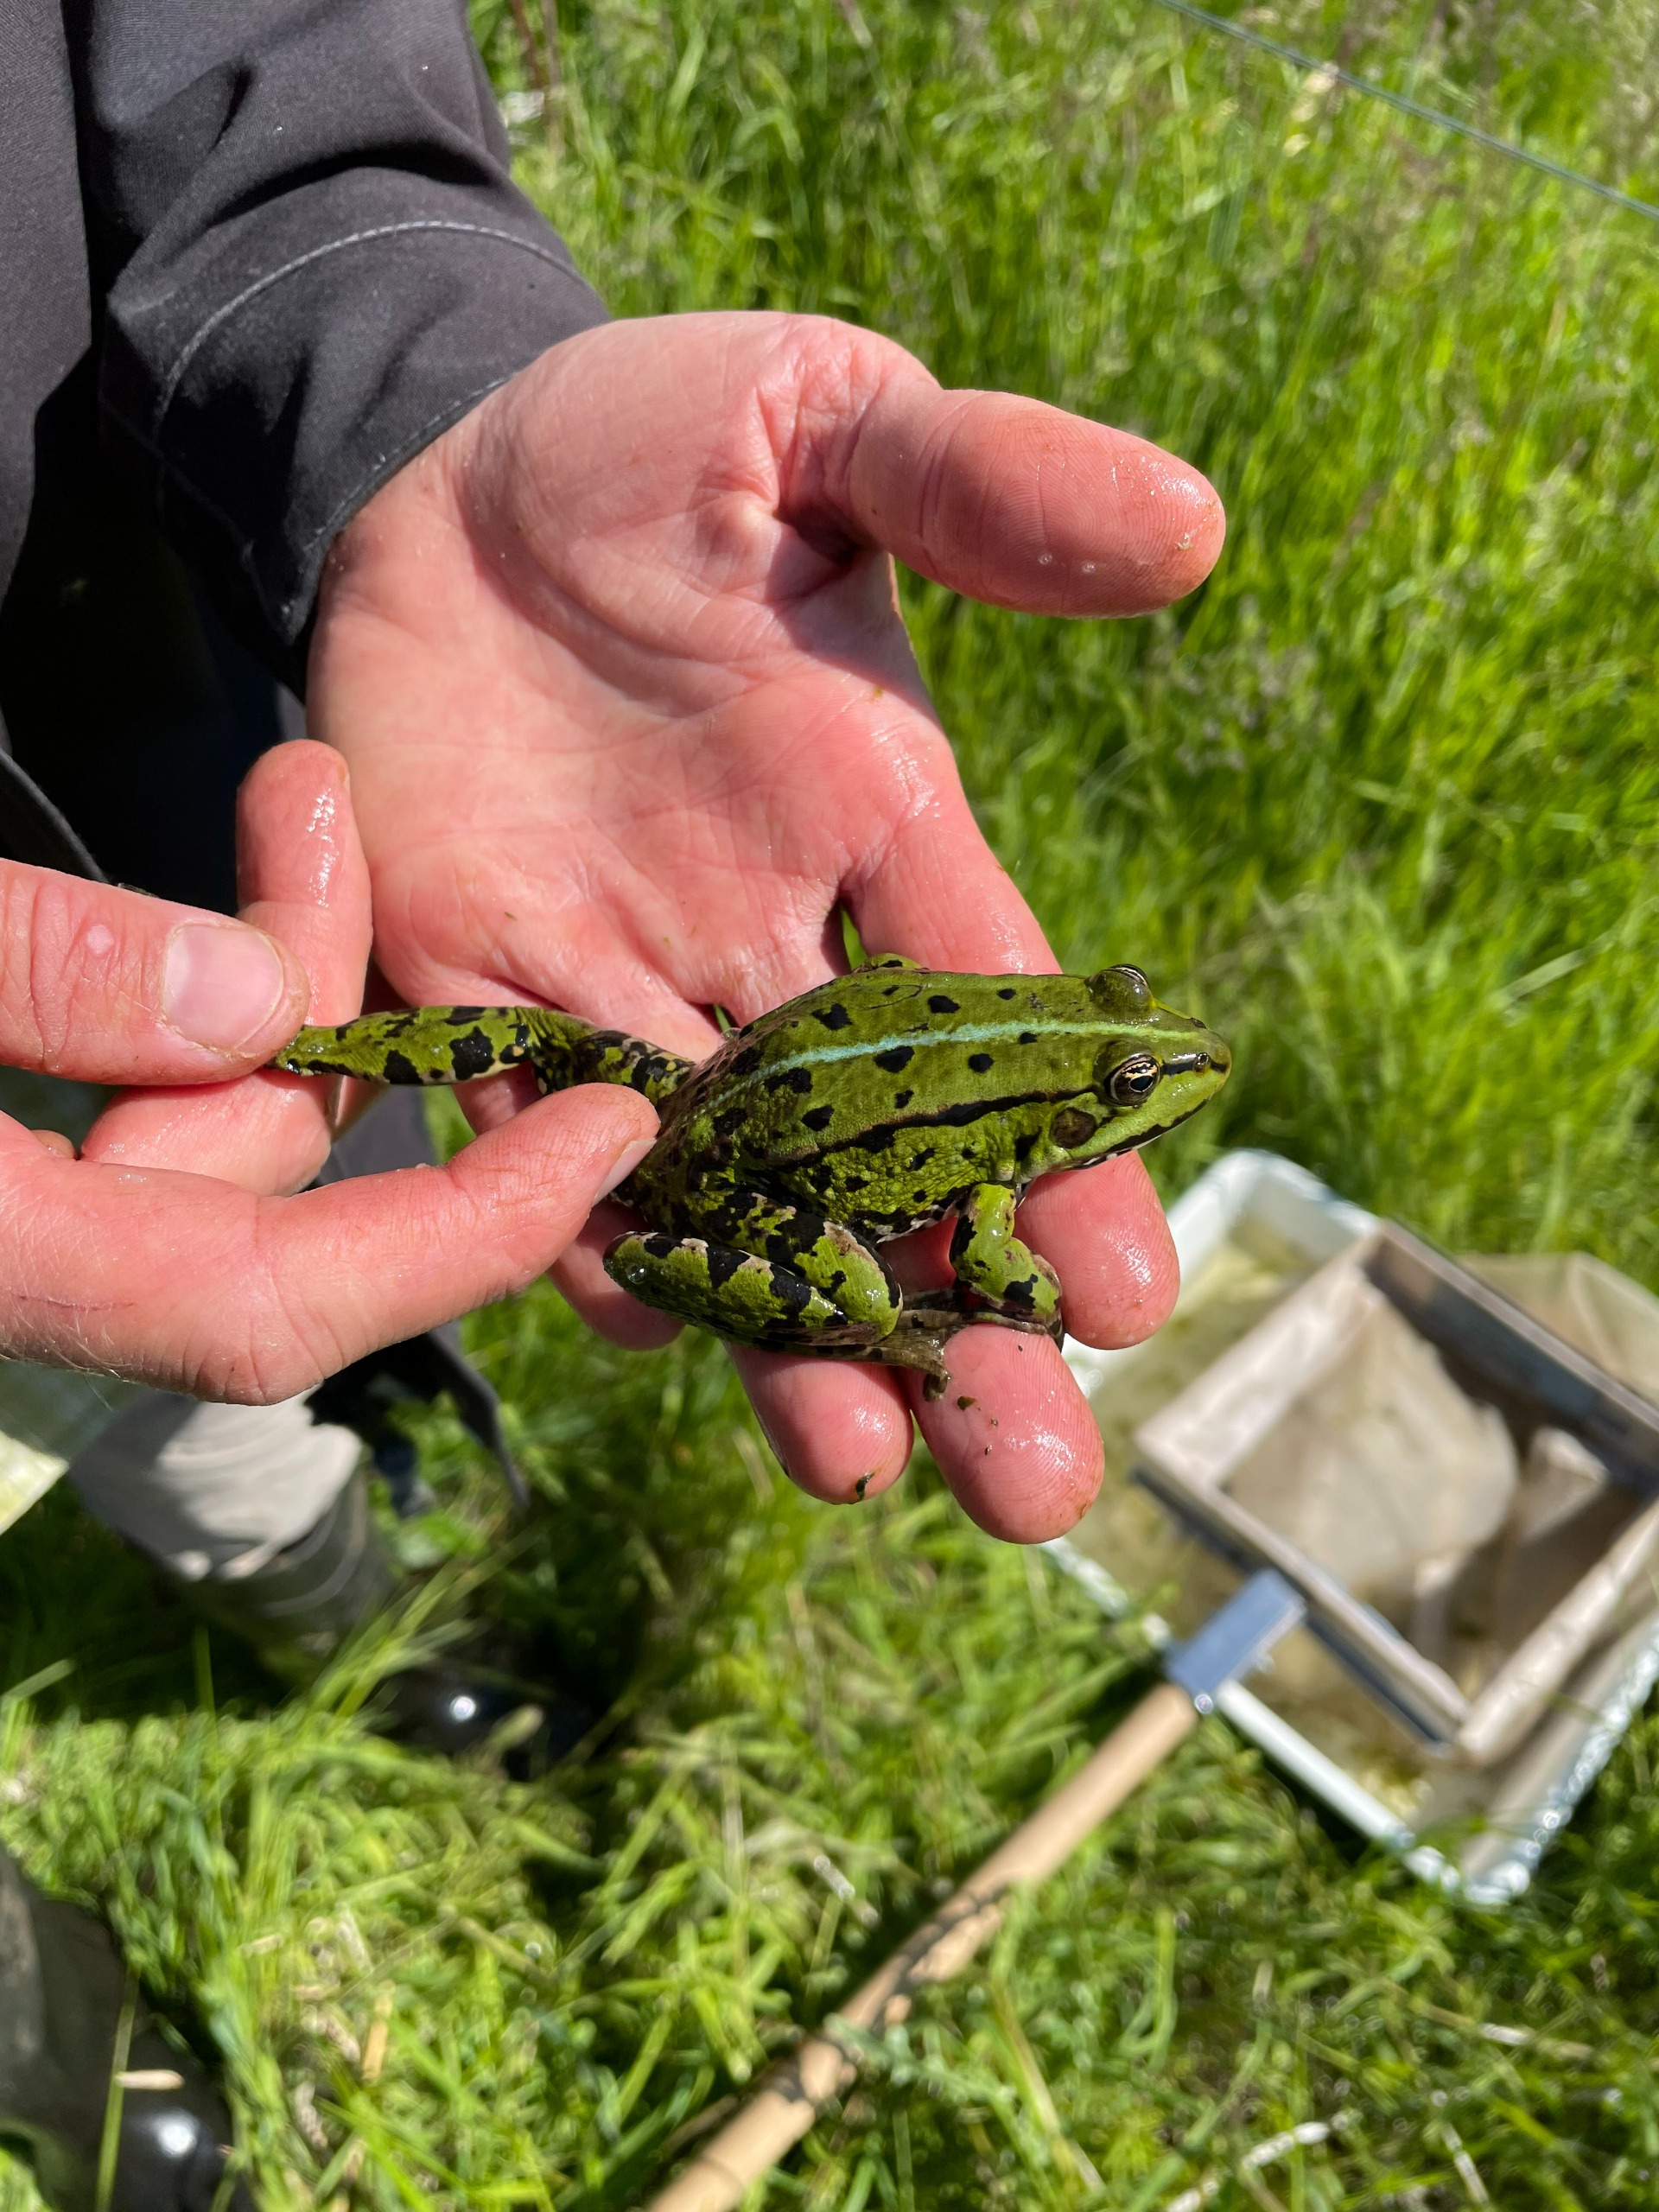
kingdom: Animalia
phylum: Chordata
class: Amphibia
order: Anura
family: Ranidae
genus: Pelophylax
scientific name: Pelophylax lessonae
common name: Grøn frø
